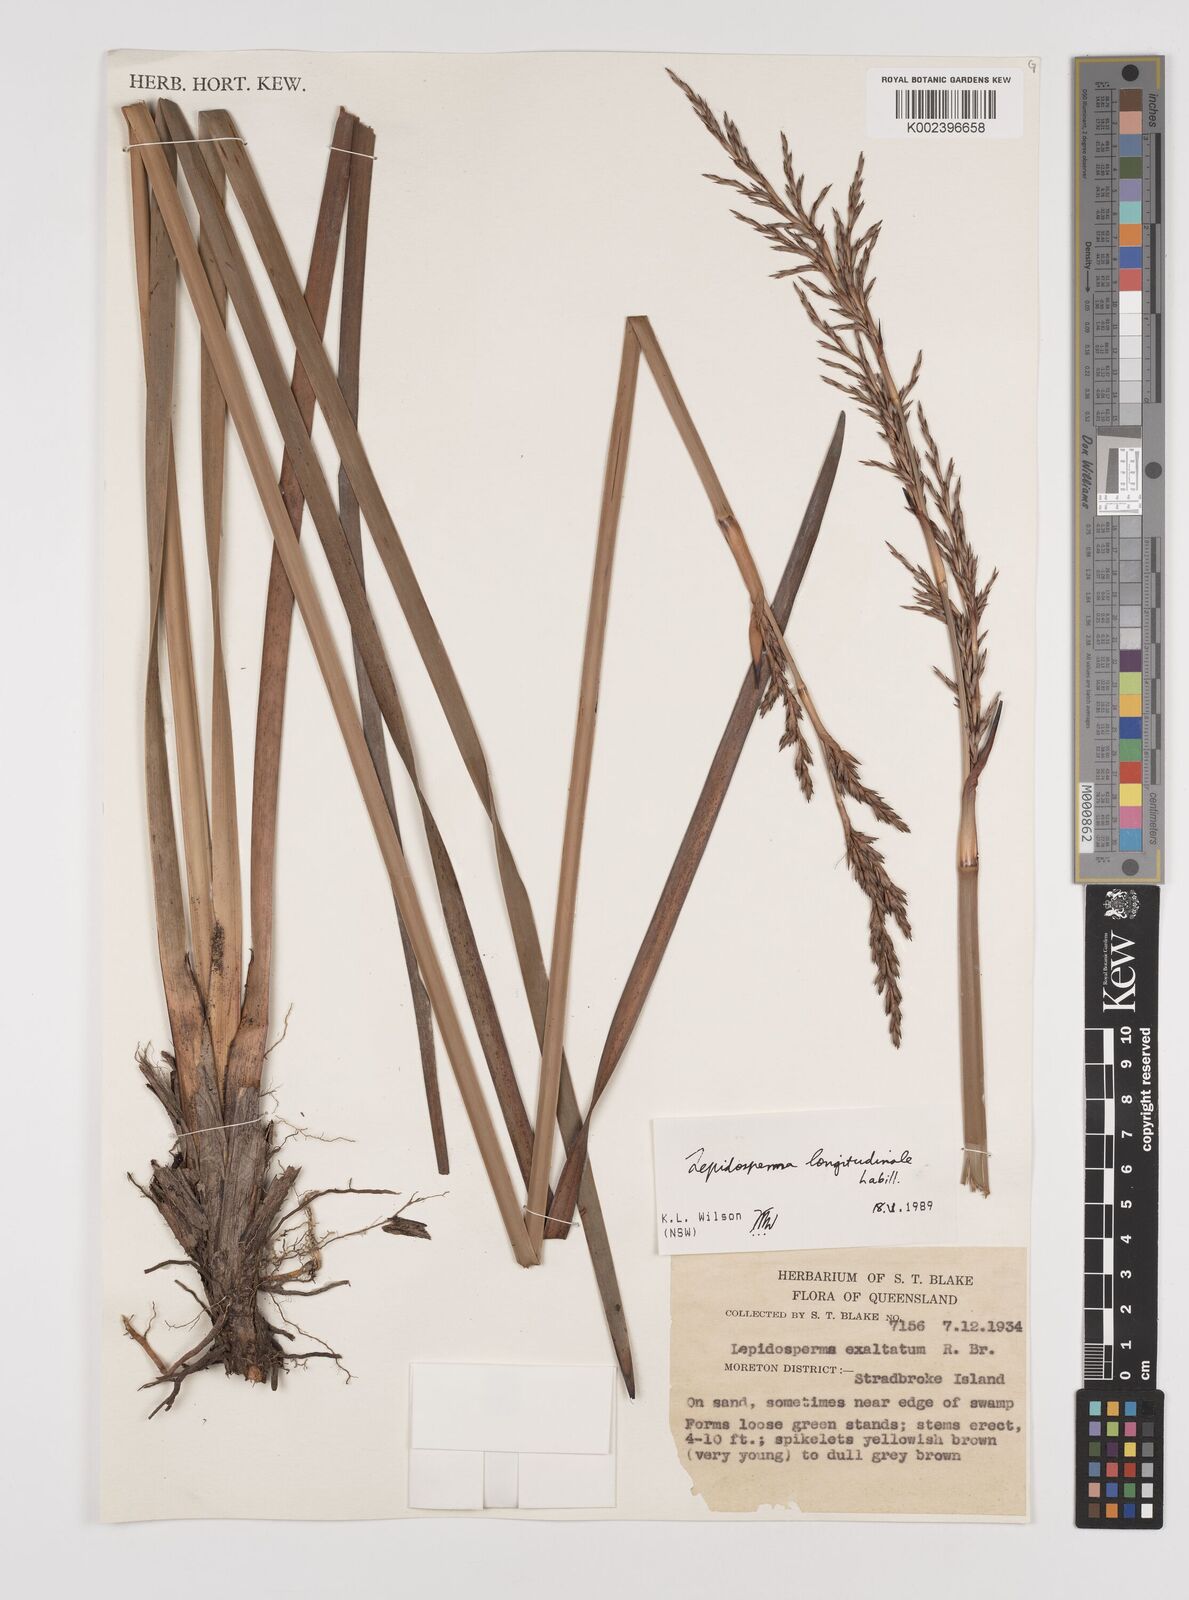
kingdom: Plantae
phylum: Tracheophyta
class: Liliopsida
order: Poales
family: Cyperaceae
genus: Lepidosperma
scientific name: Lepidosperma longitudinale
